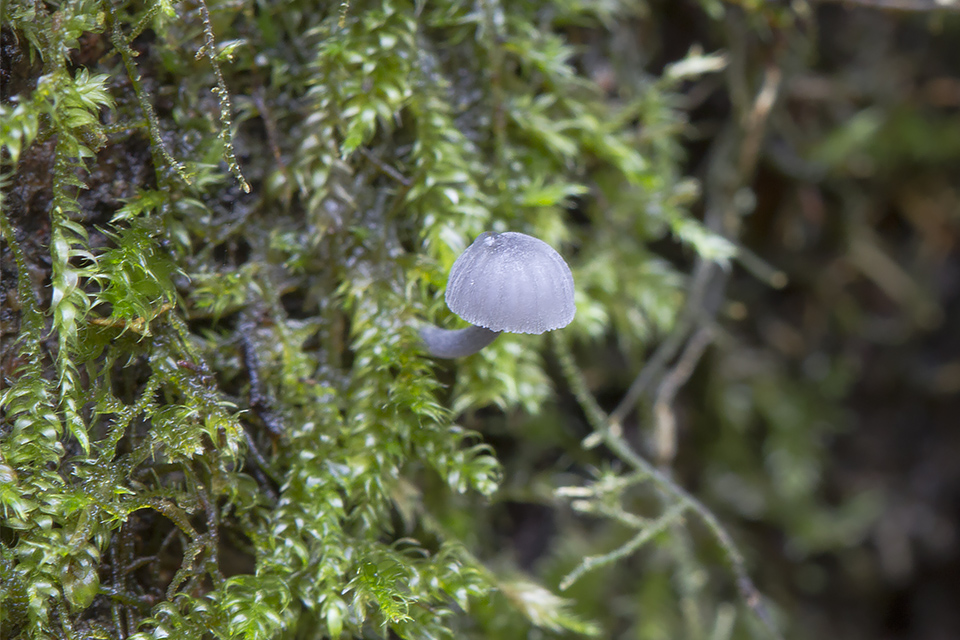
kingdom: Fungi
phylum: Basidiomycota
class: Agaricomycetes
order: Agaricales
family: Mycenaceae
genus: Mycena
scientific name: Mycena pseudocorticola
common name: gråblå bark-huesvamp
